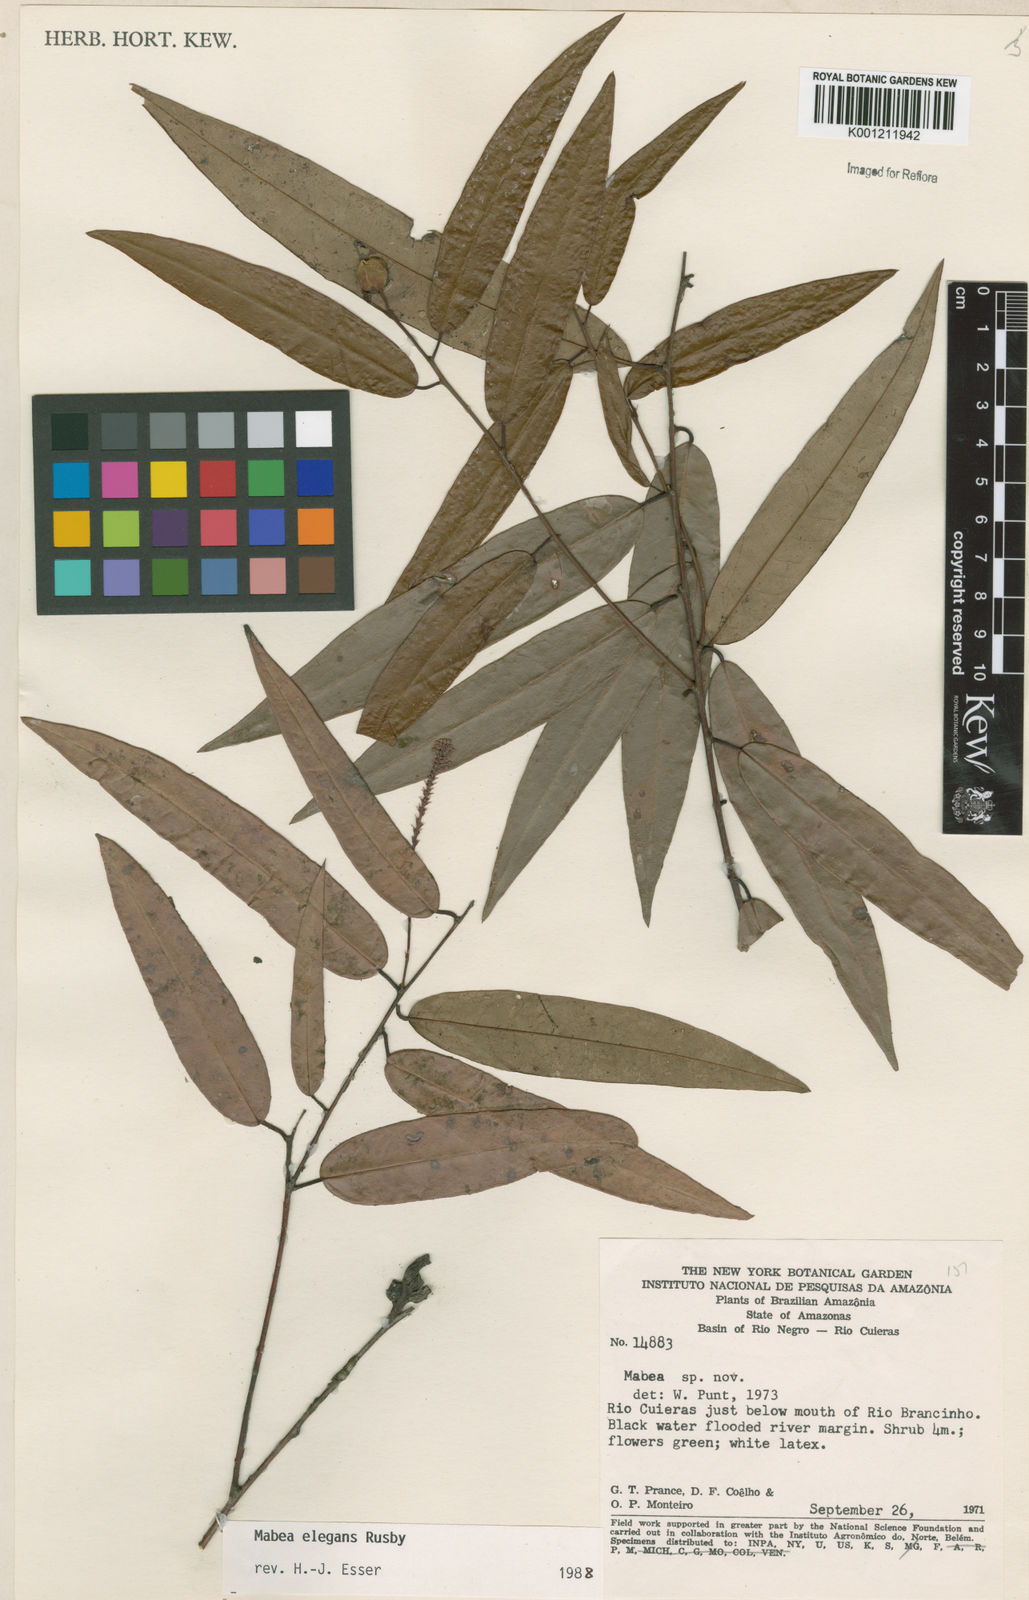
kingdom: Plantae
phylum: Tracheophyta
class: Magnoliopsida
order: Malpighiales
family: Euphorbiaceae
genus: Mabea
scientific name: Mabea elegans
